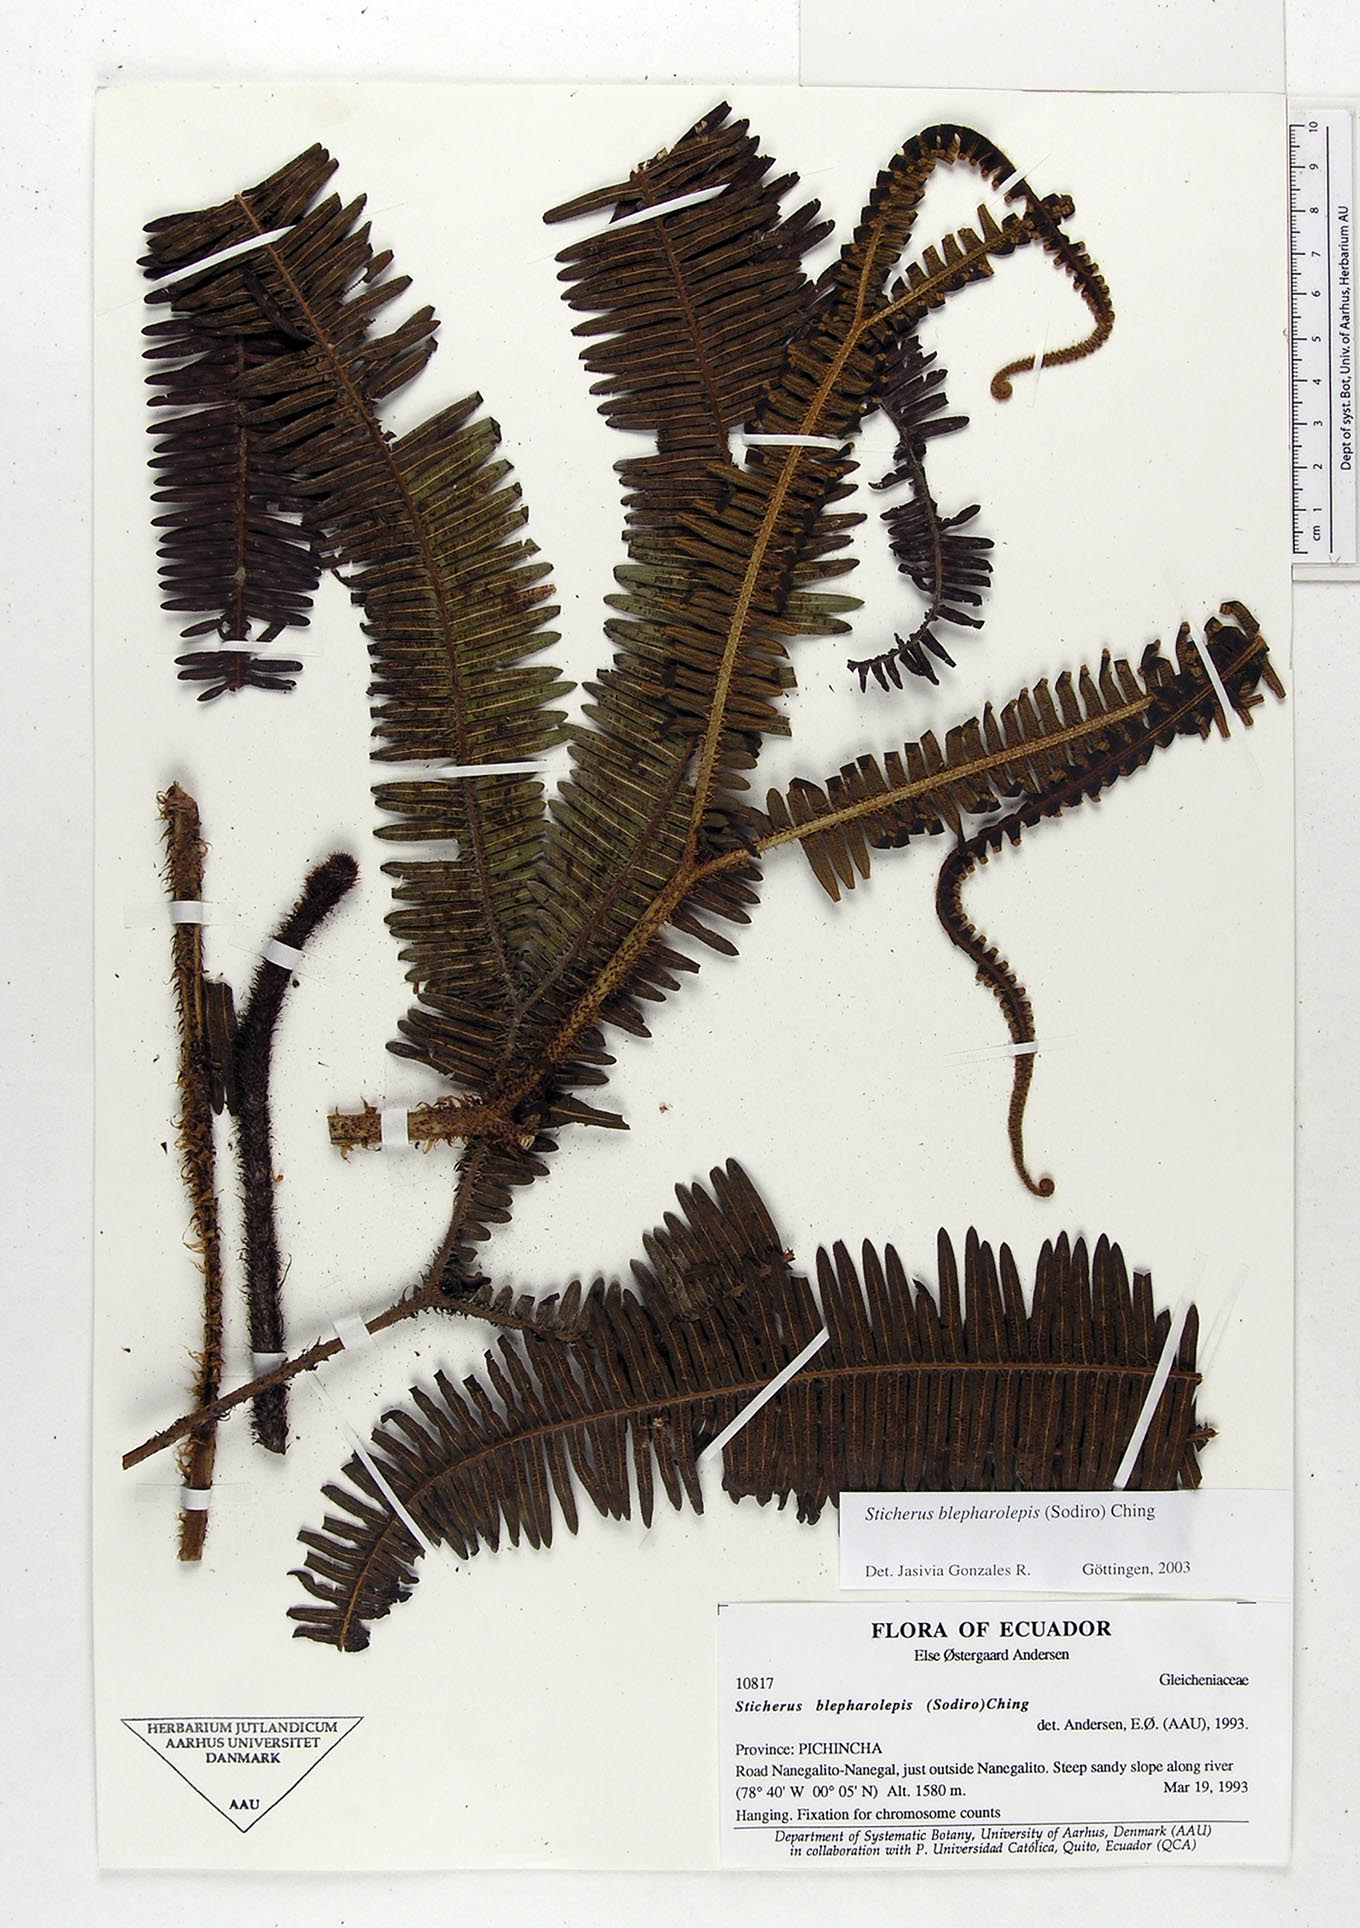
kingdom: Plantae
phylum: Tracheophyta
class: Polypodiopsida
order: Gleicheniales
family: Gleicheniaceae
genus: Sticherus
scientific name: Sticherus blepharolepis
